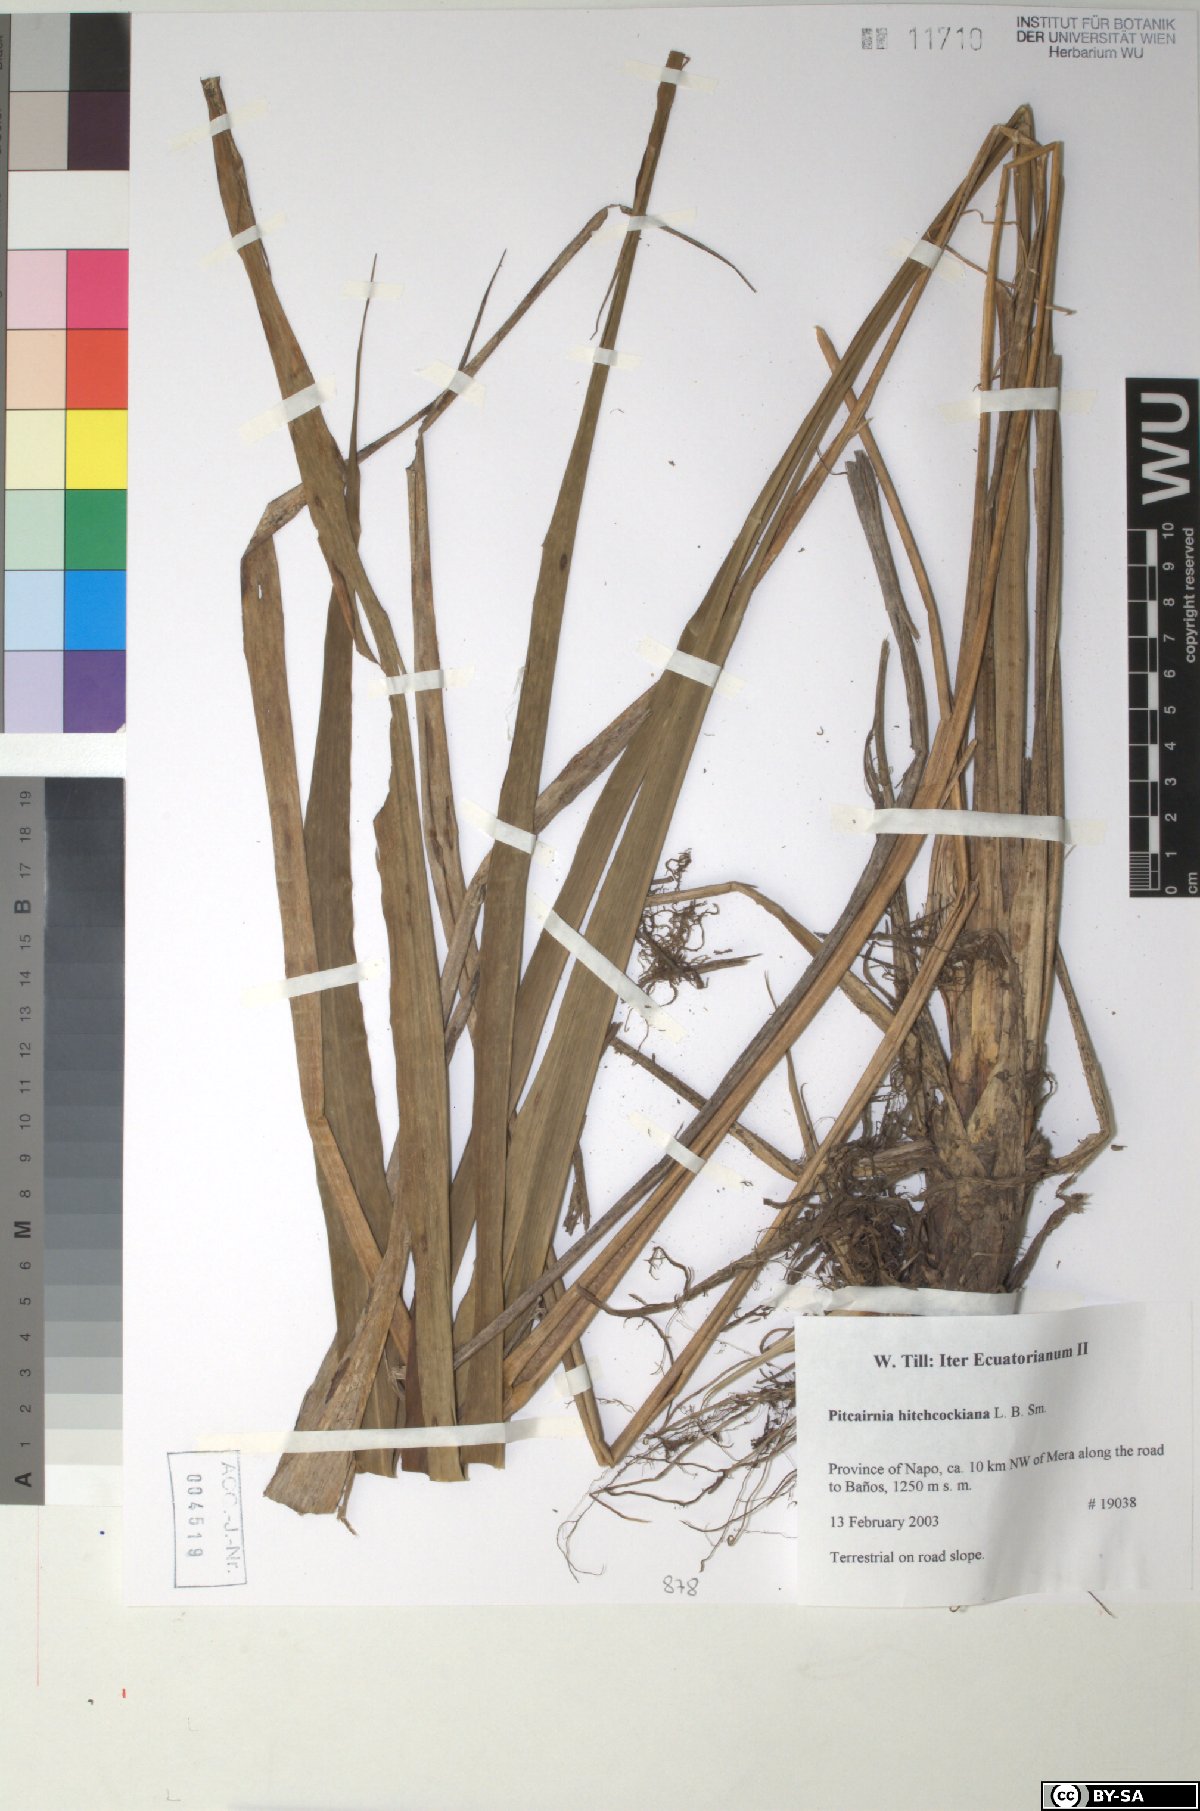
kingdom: Plantae
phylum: Tracheophyta
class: Liliopsida
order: Poales
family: Bromeliaceae
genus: Pitcairnia
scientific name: Pitcairnia hitchcockiana
